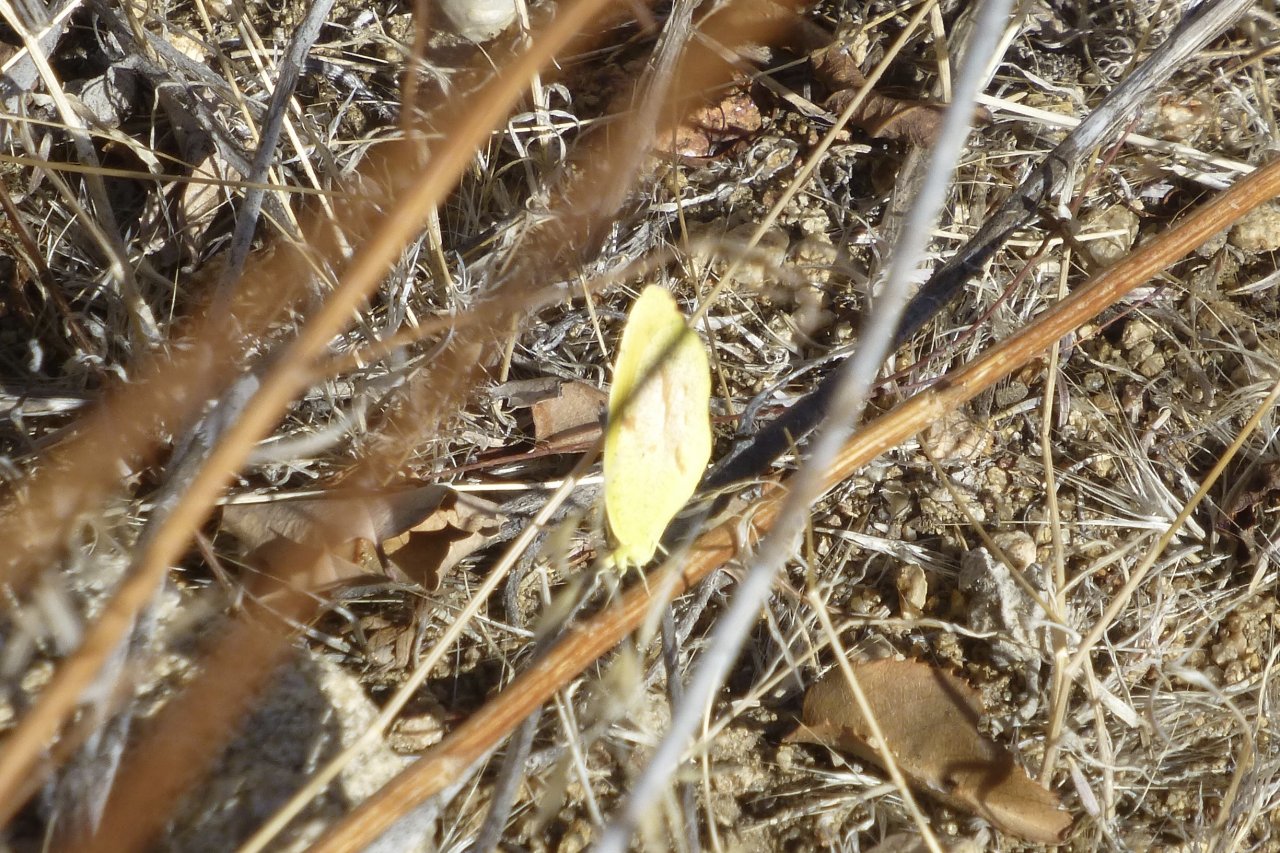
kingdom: Animalia
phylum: Arthropoda
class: Insecta
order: Lepidoptera
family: Pieridae
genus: Abaeis
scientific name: Abaeis nicippe
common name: Sleepy Orange
